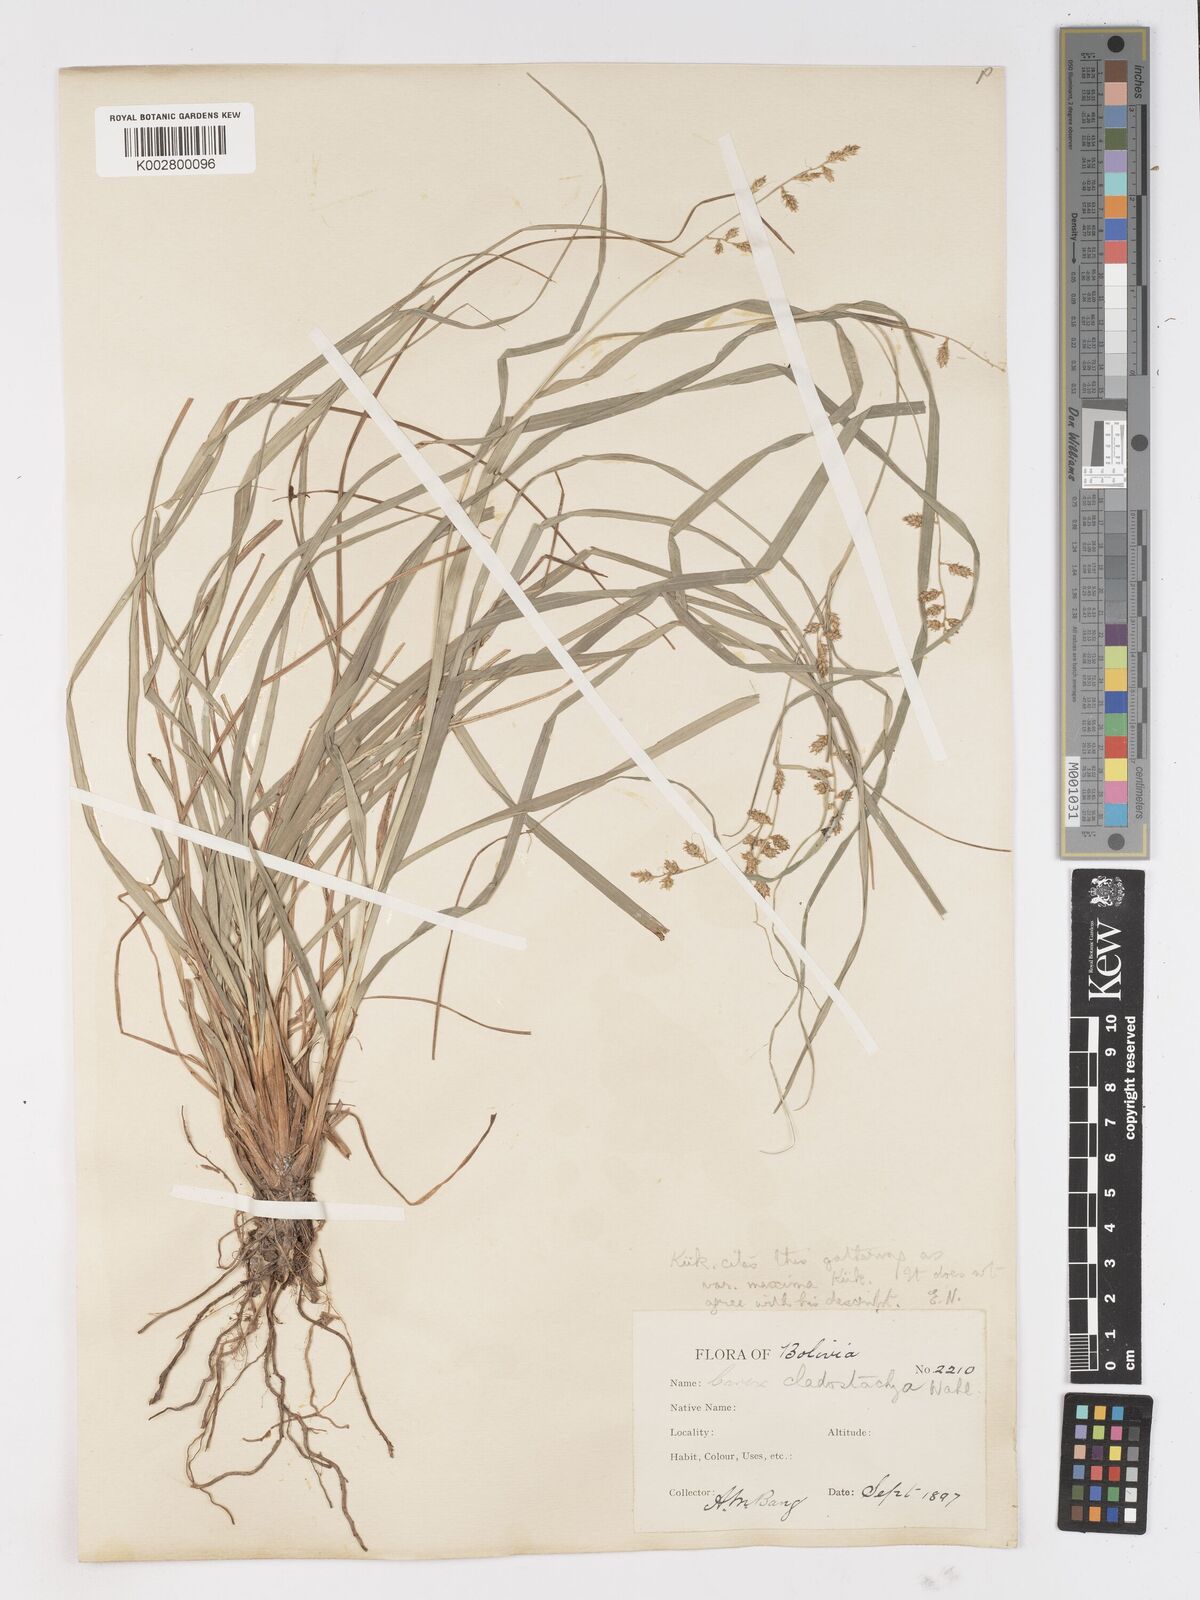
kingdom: Plantae
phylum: Tracheophyta
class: Liliopsida
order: Poales
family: Cyperaceae
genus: Carex
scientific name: Carex polystachya
